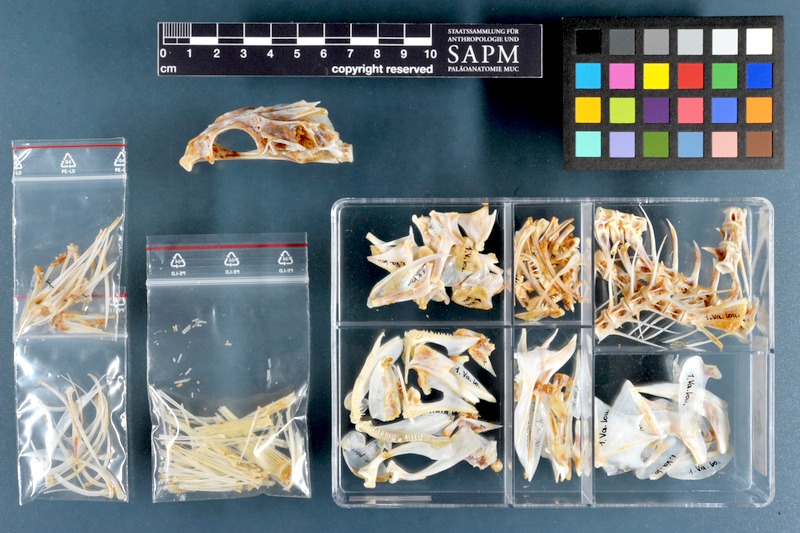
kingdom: Animalia
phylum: Chordata
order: Perciformes
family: Serranidae
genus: Variola
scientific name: Variola louti
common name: Yellow-edged lyretail
